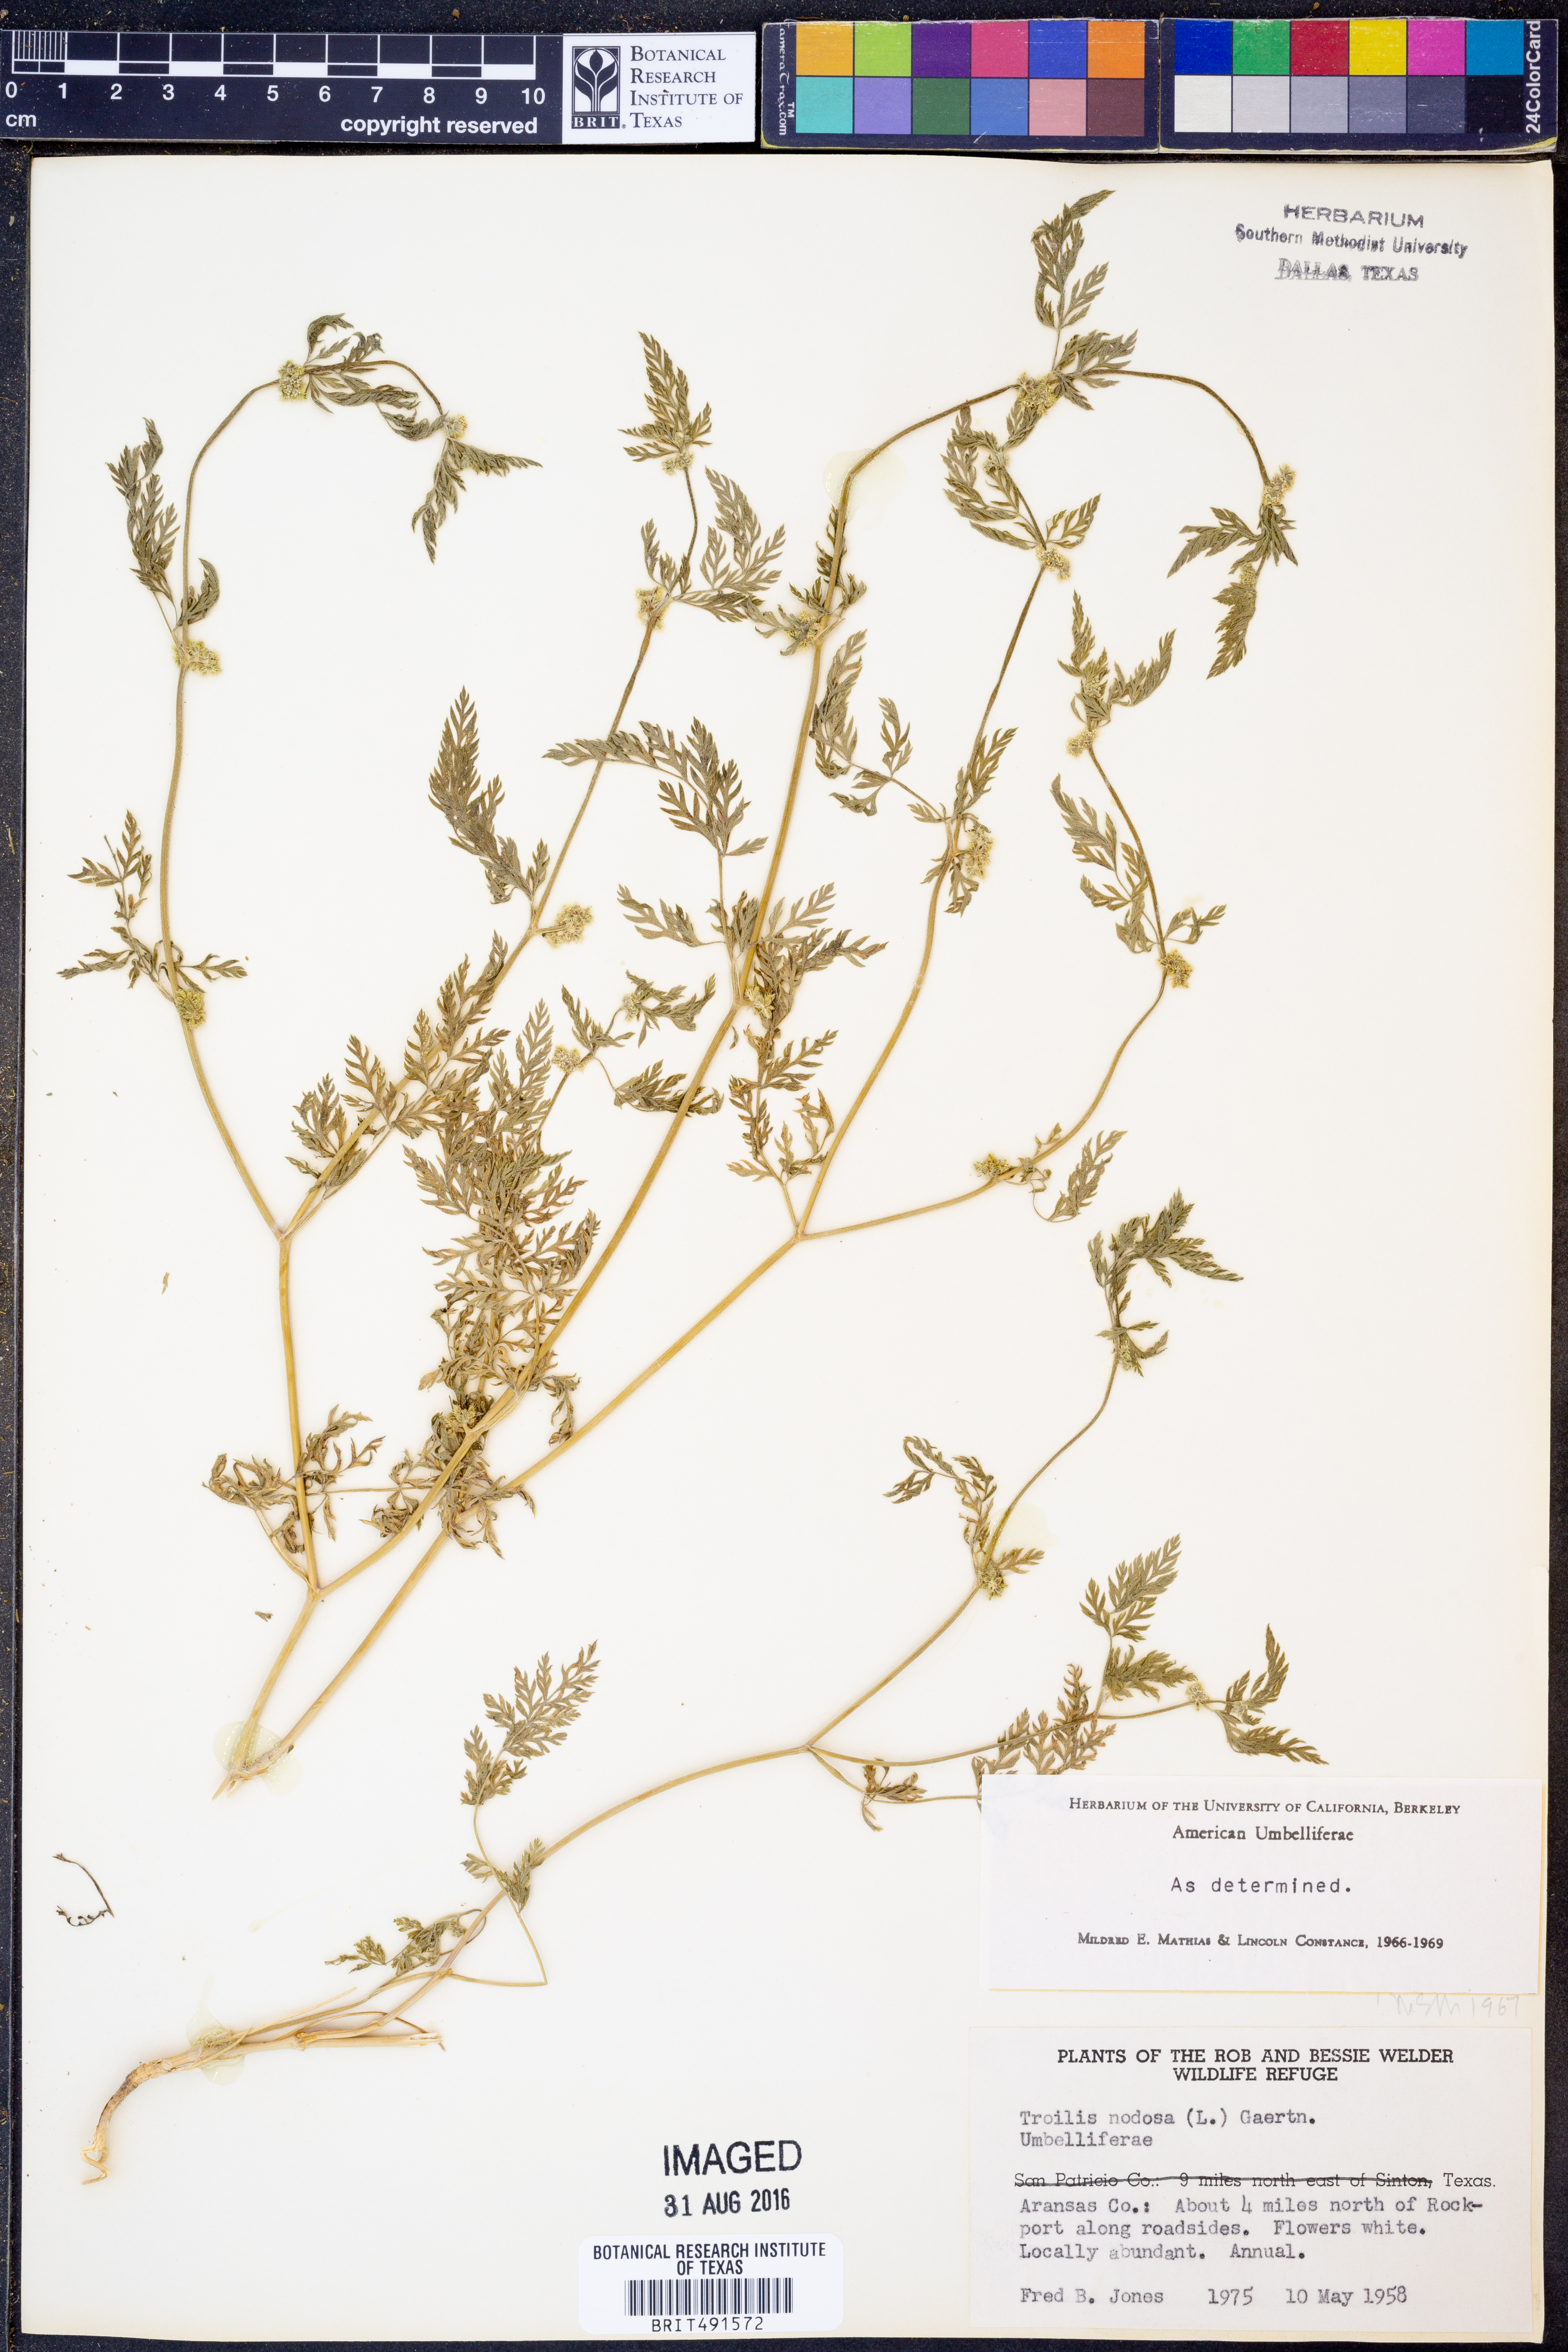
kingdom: Plantae
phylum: Tracheophyta
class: Magnoliopsida
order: Apiales
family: Apiaceae
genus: Torilis
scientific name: Torilis nodosa
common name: Knotted hedge-parsley
